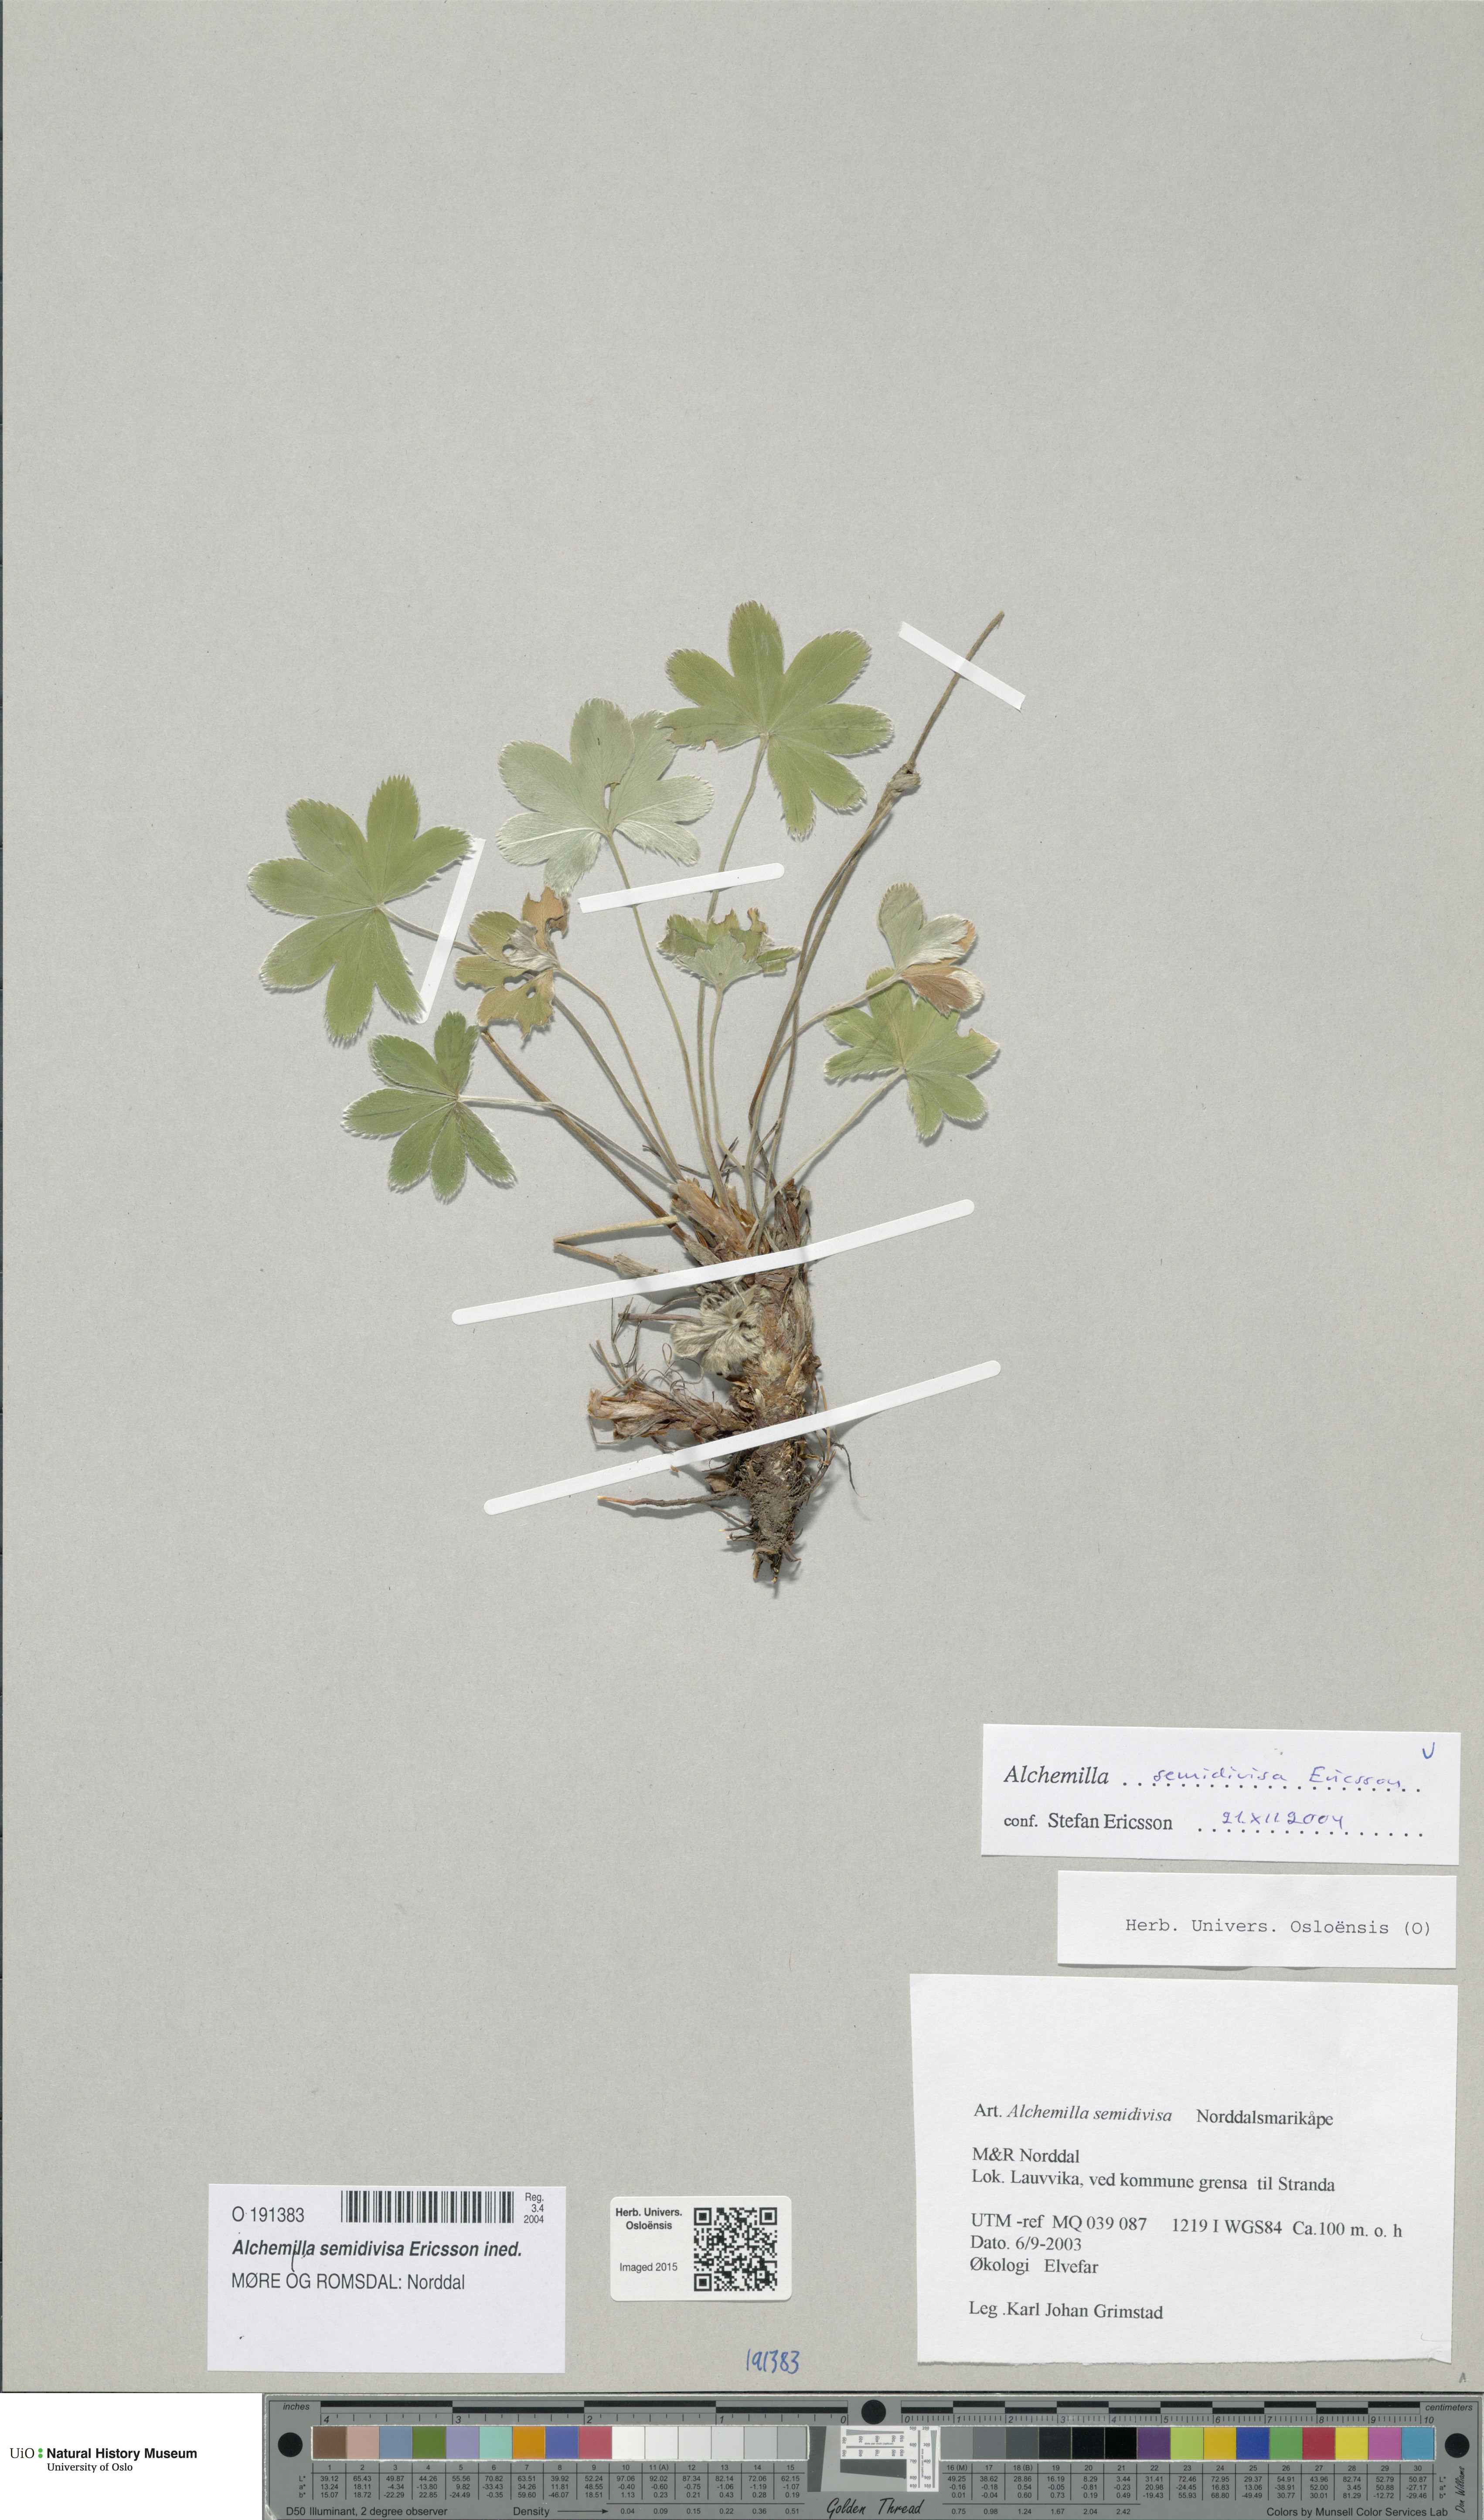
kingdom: Plantae
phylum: Tracheophyta
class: Magnoliopsida
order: Rosales
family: Rosaceae
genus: Alchemilla
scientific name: Alchemilla semidivisa
